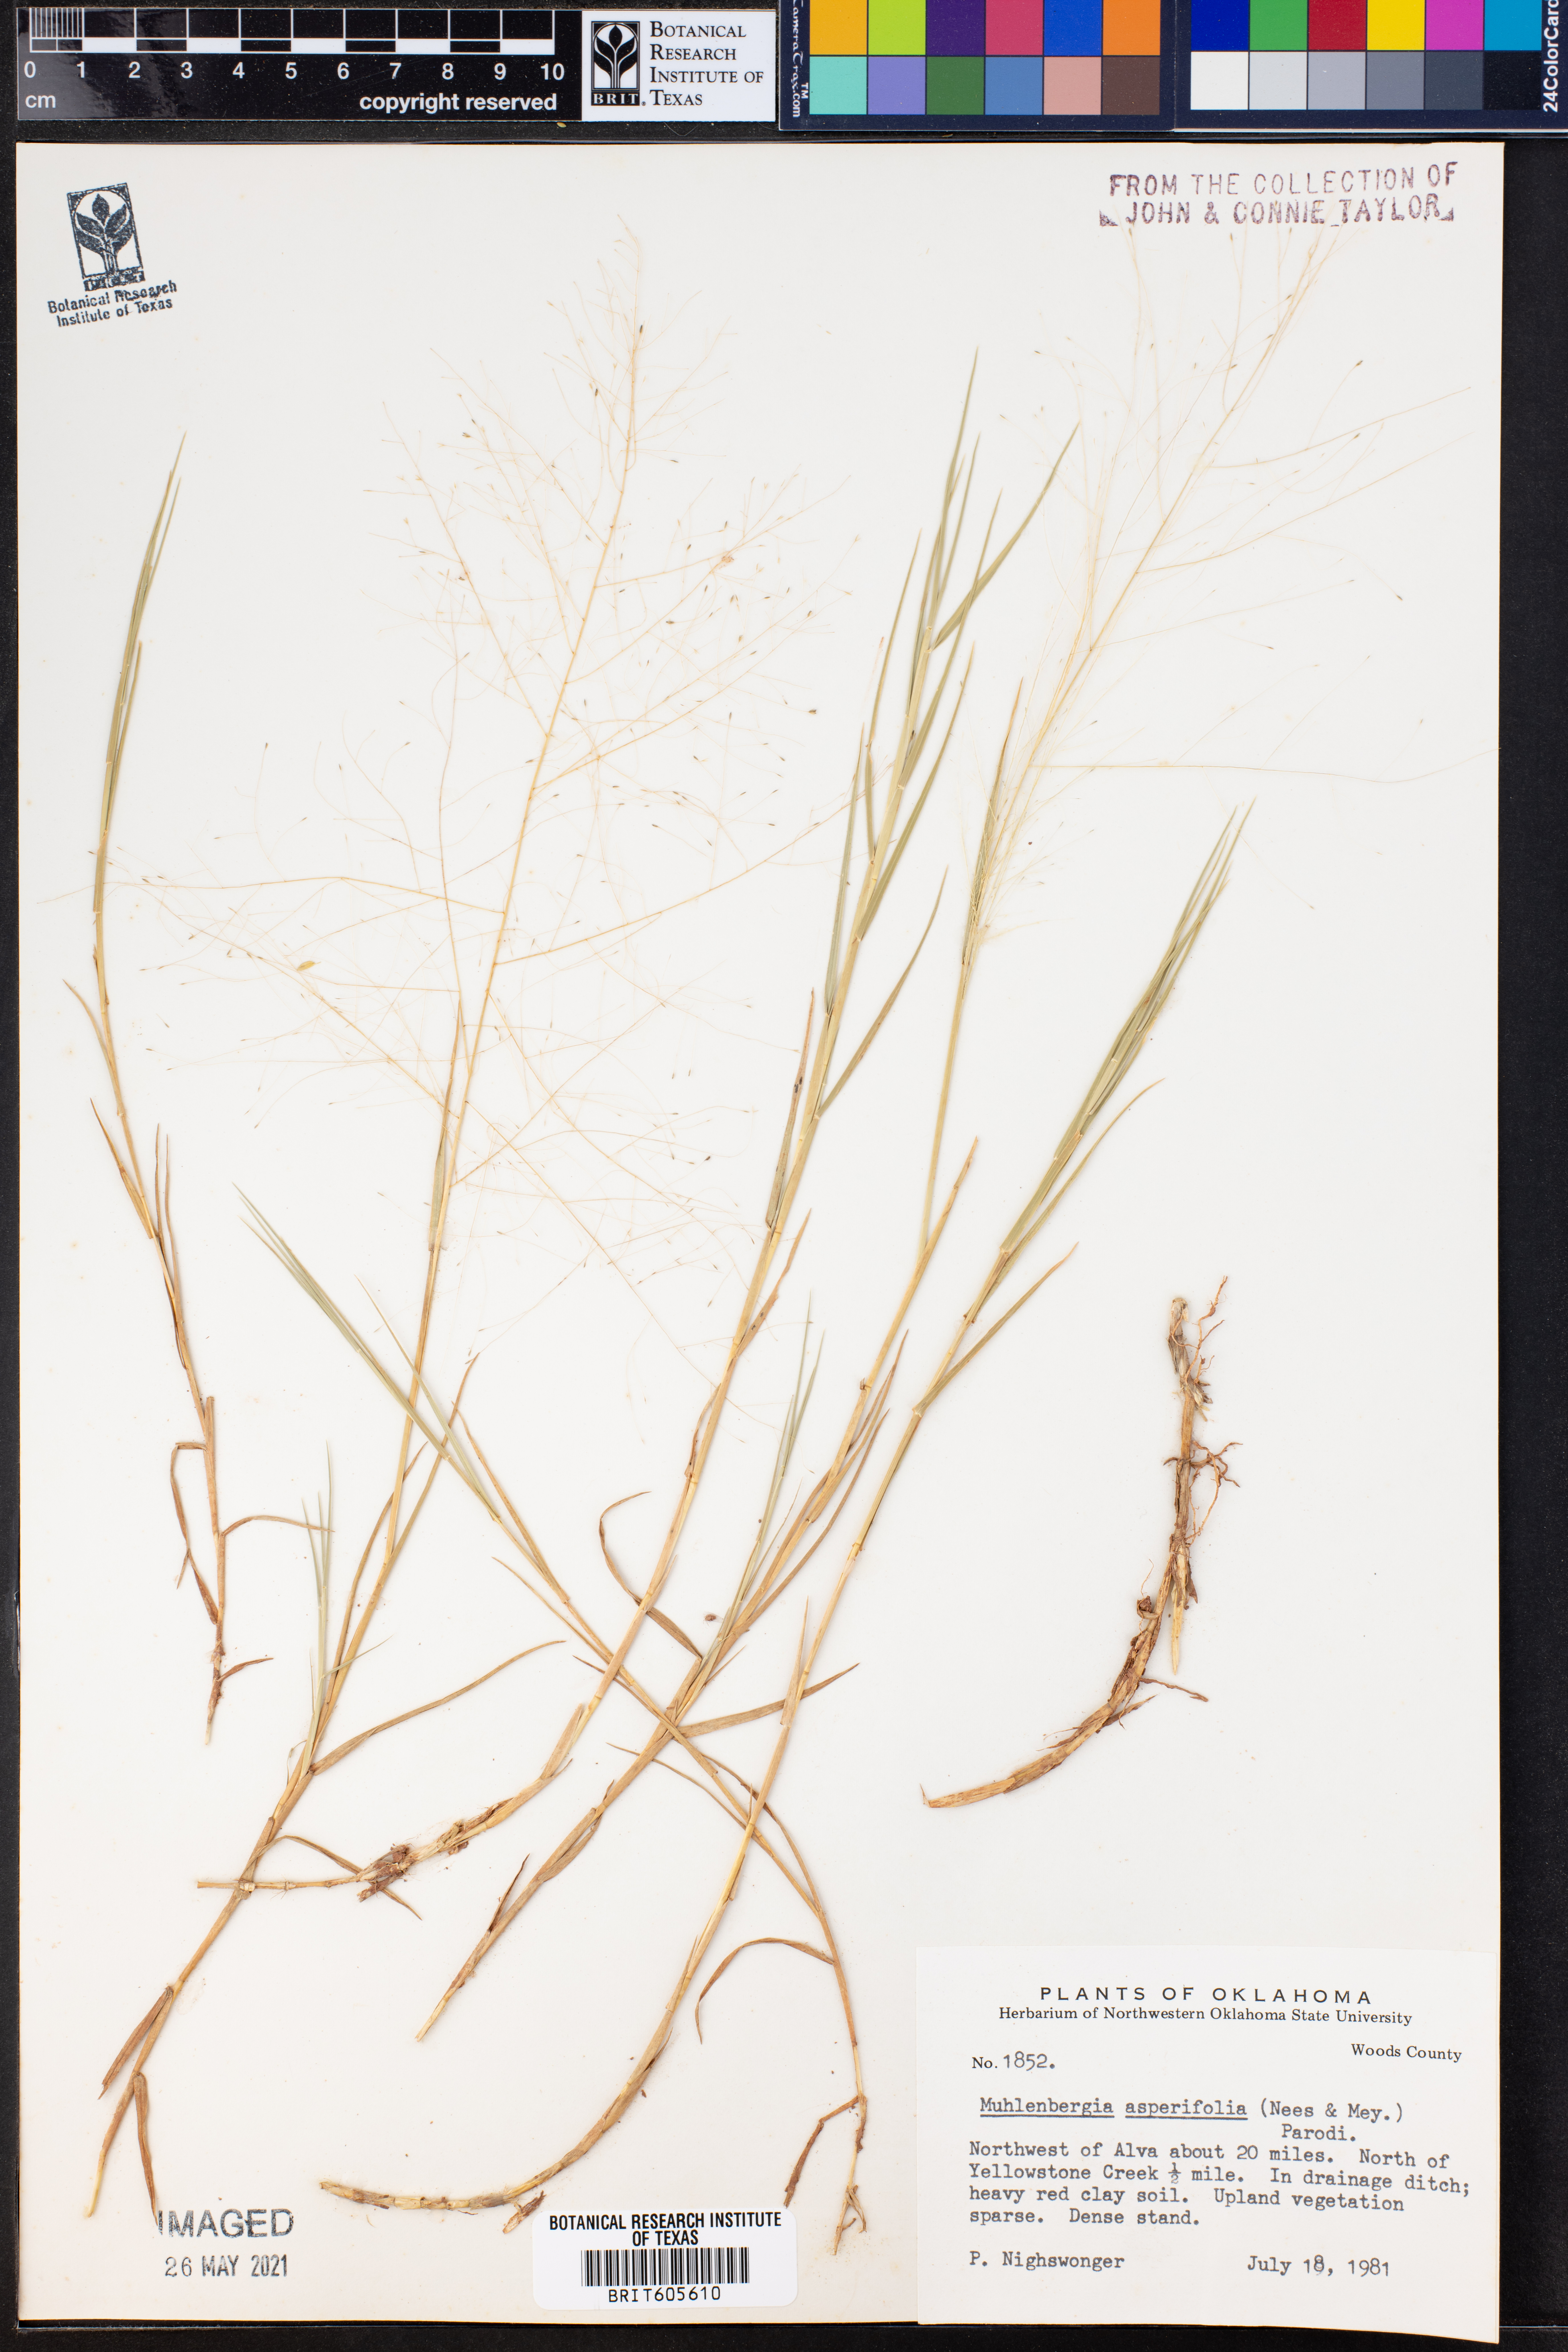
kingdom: Plantae
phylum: Tracheophyta
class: Liliopsida
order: Poales
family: Poaceae
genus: Muhlenbergia
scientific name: Muhlenbergia asperifolia
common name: Alkali muhly
